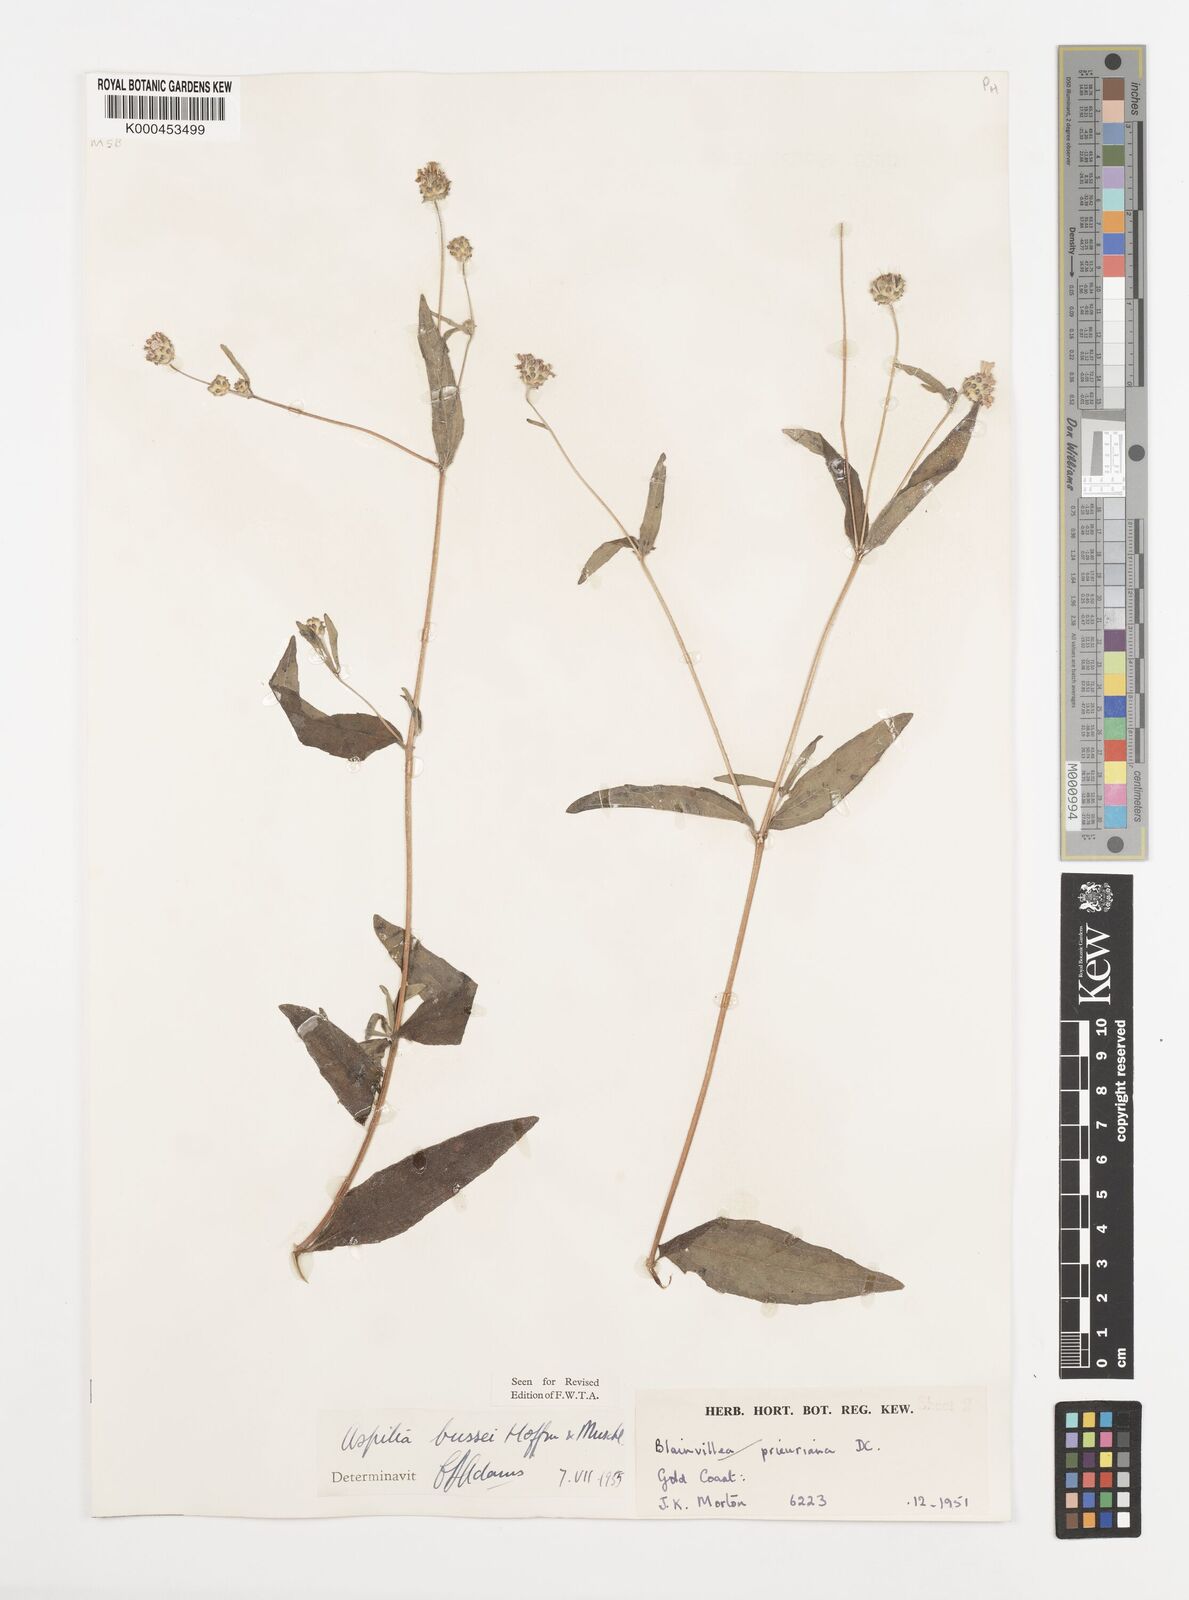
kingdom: Plantae
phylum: Tracheophyta
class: Magnoliopsida
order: Asterales
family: Asteraceae
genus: Aspilia
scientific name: Aspilia bussei
